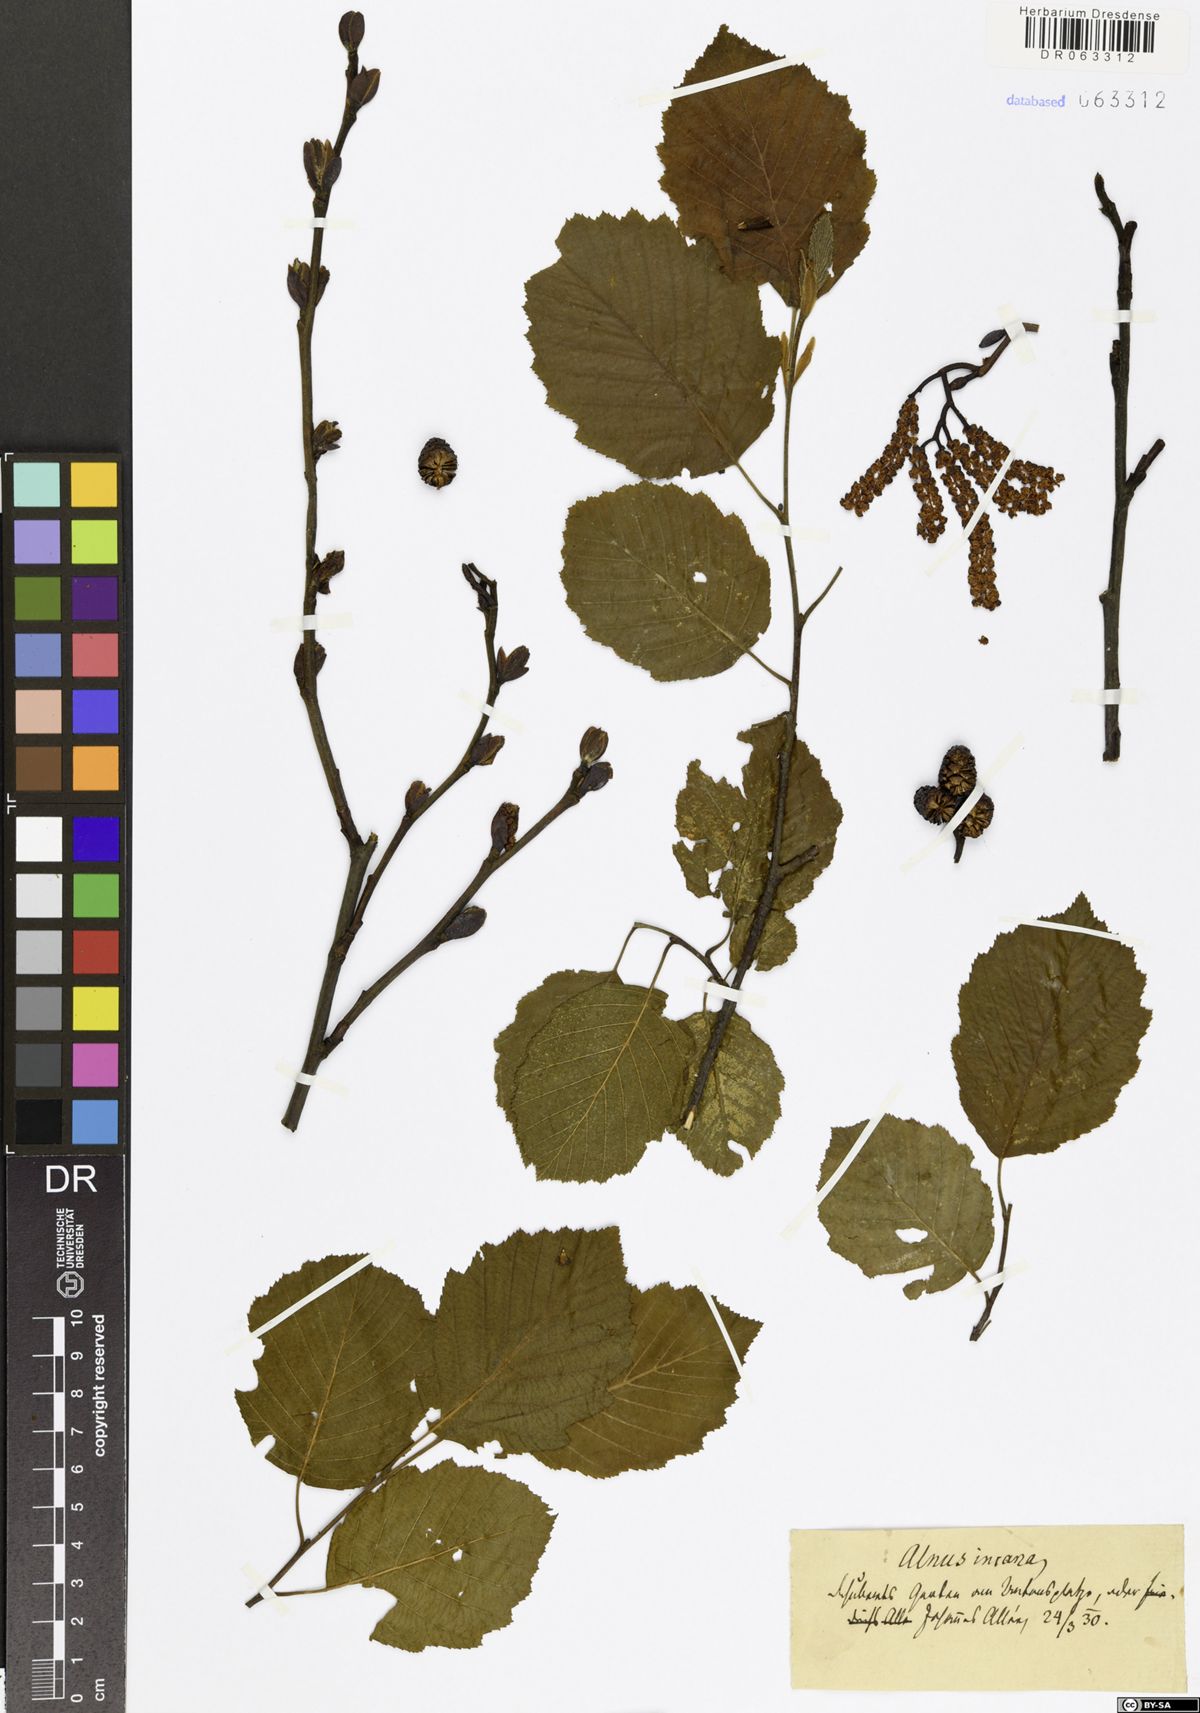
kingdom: Plantae
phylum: Tracheophyta
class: Magnoliopsida
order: Fagales
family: Betulaceae
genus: Alnus
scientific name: Alnus incana
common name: Grey alder
